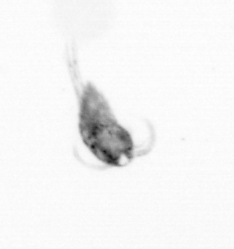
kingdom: Animalia
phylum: Arthropoda
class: Copepoda
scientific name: Copepoda
